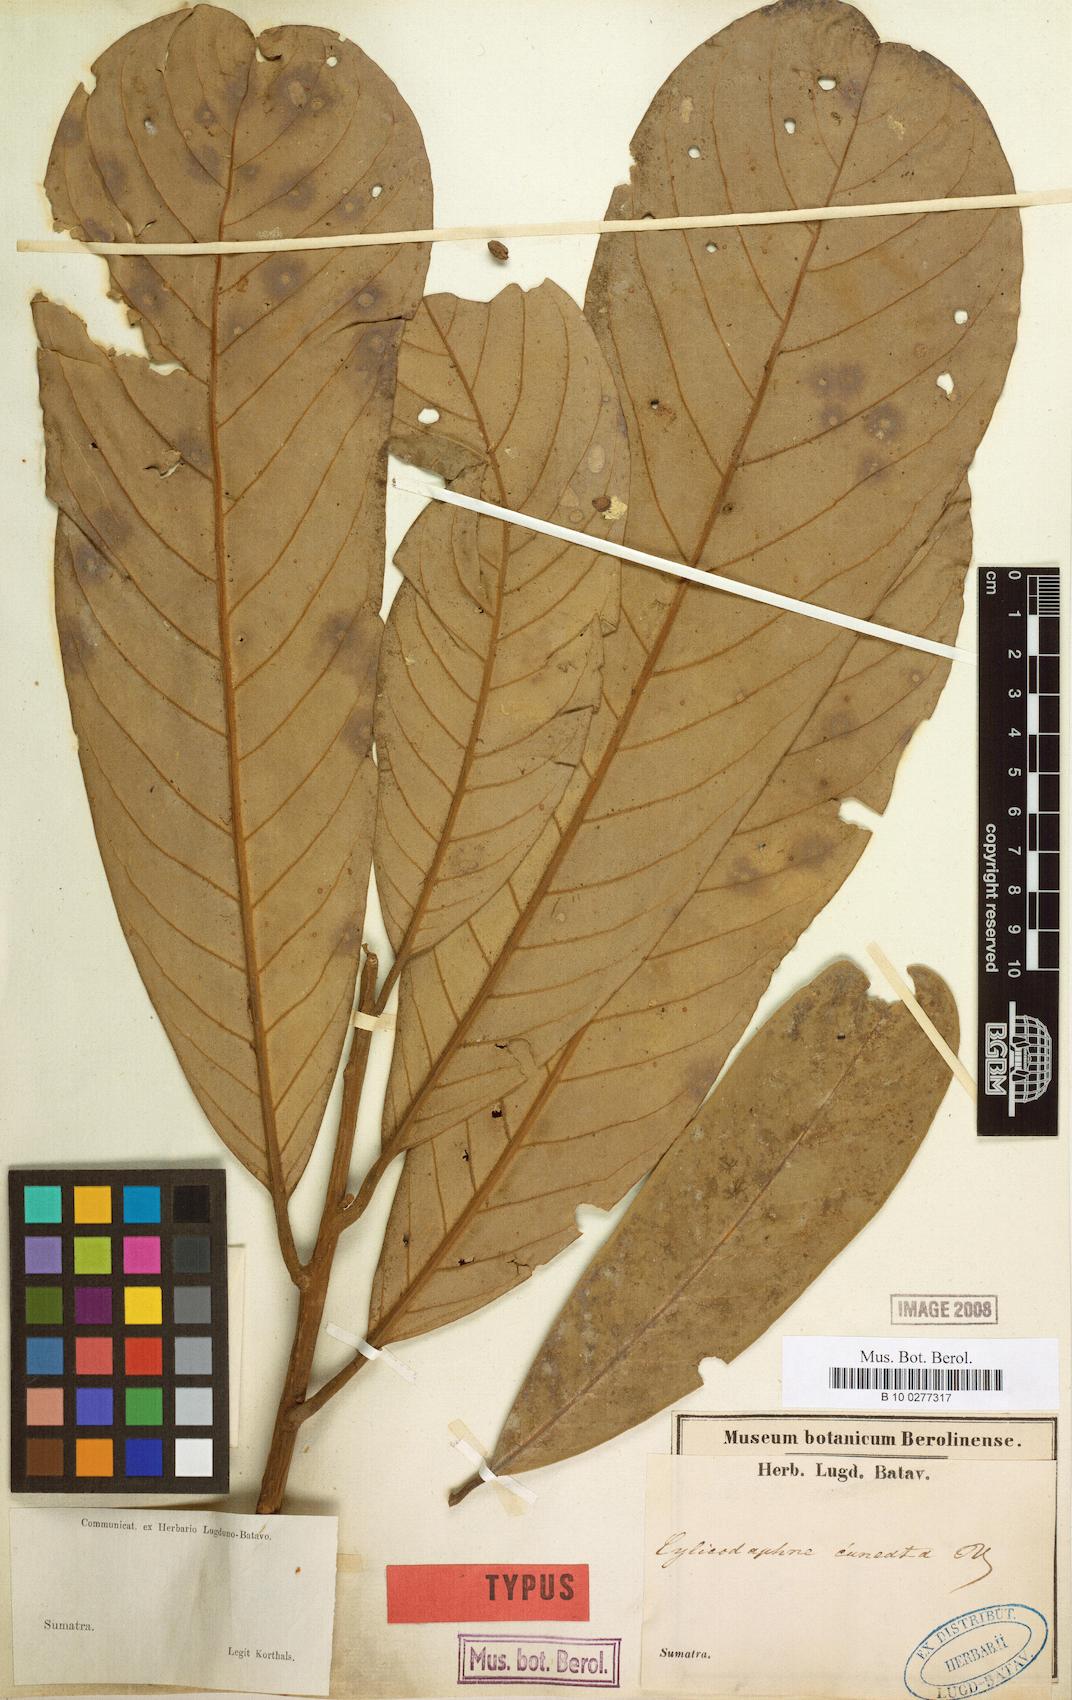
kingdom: Plantae
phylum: Tracheophyta
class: Magnoliopsida
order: Laurales
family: Lauraceae
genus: Litsea
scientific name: Litsea cuneata
